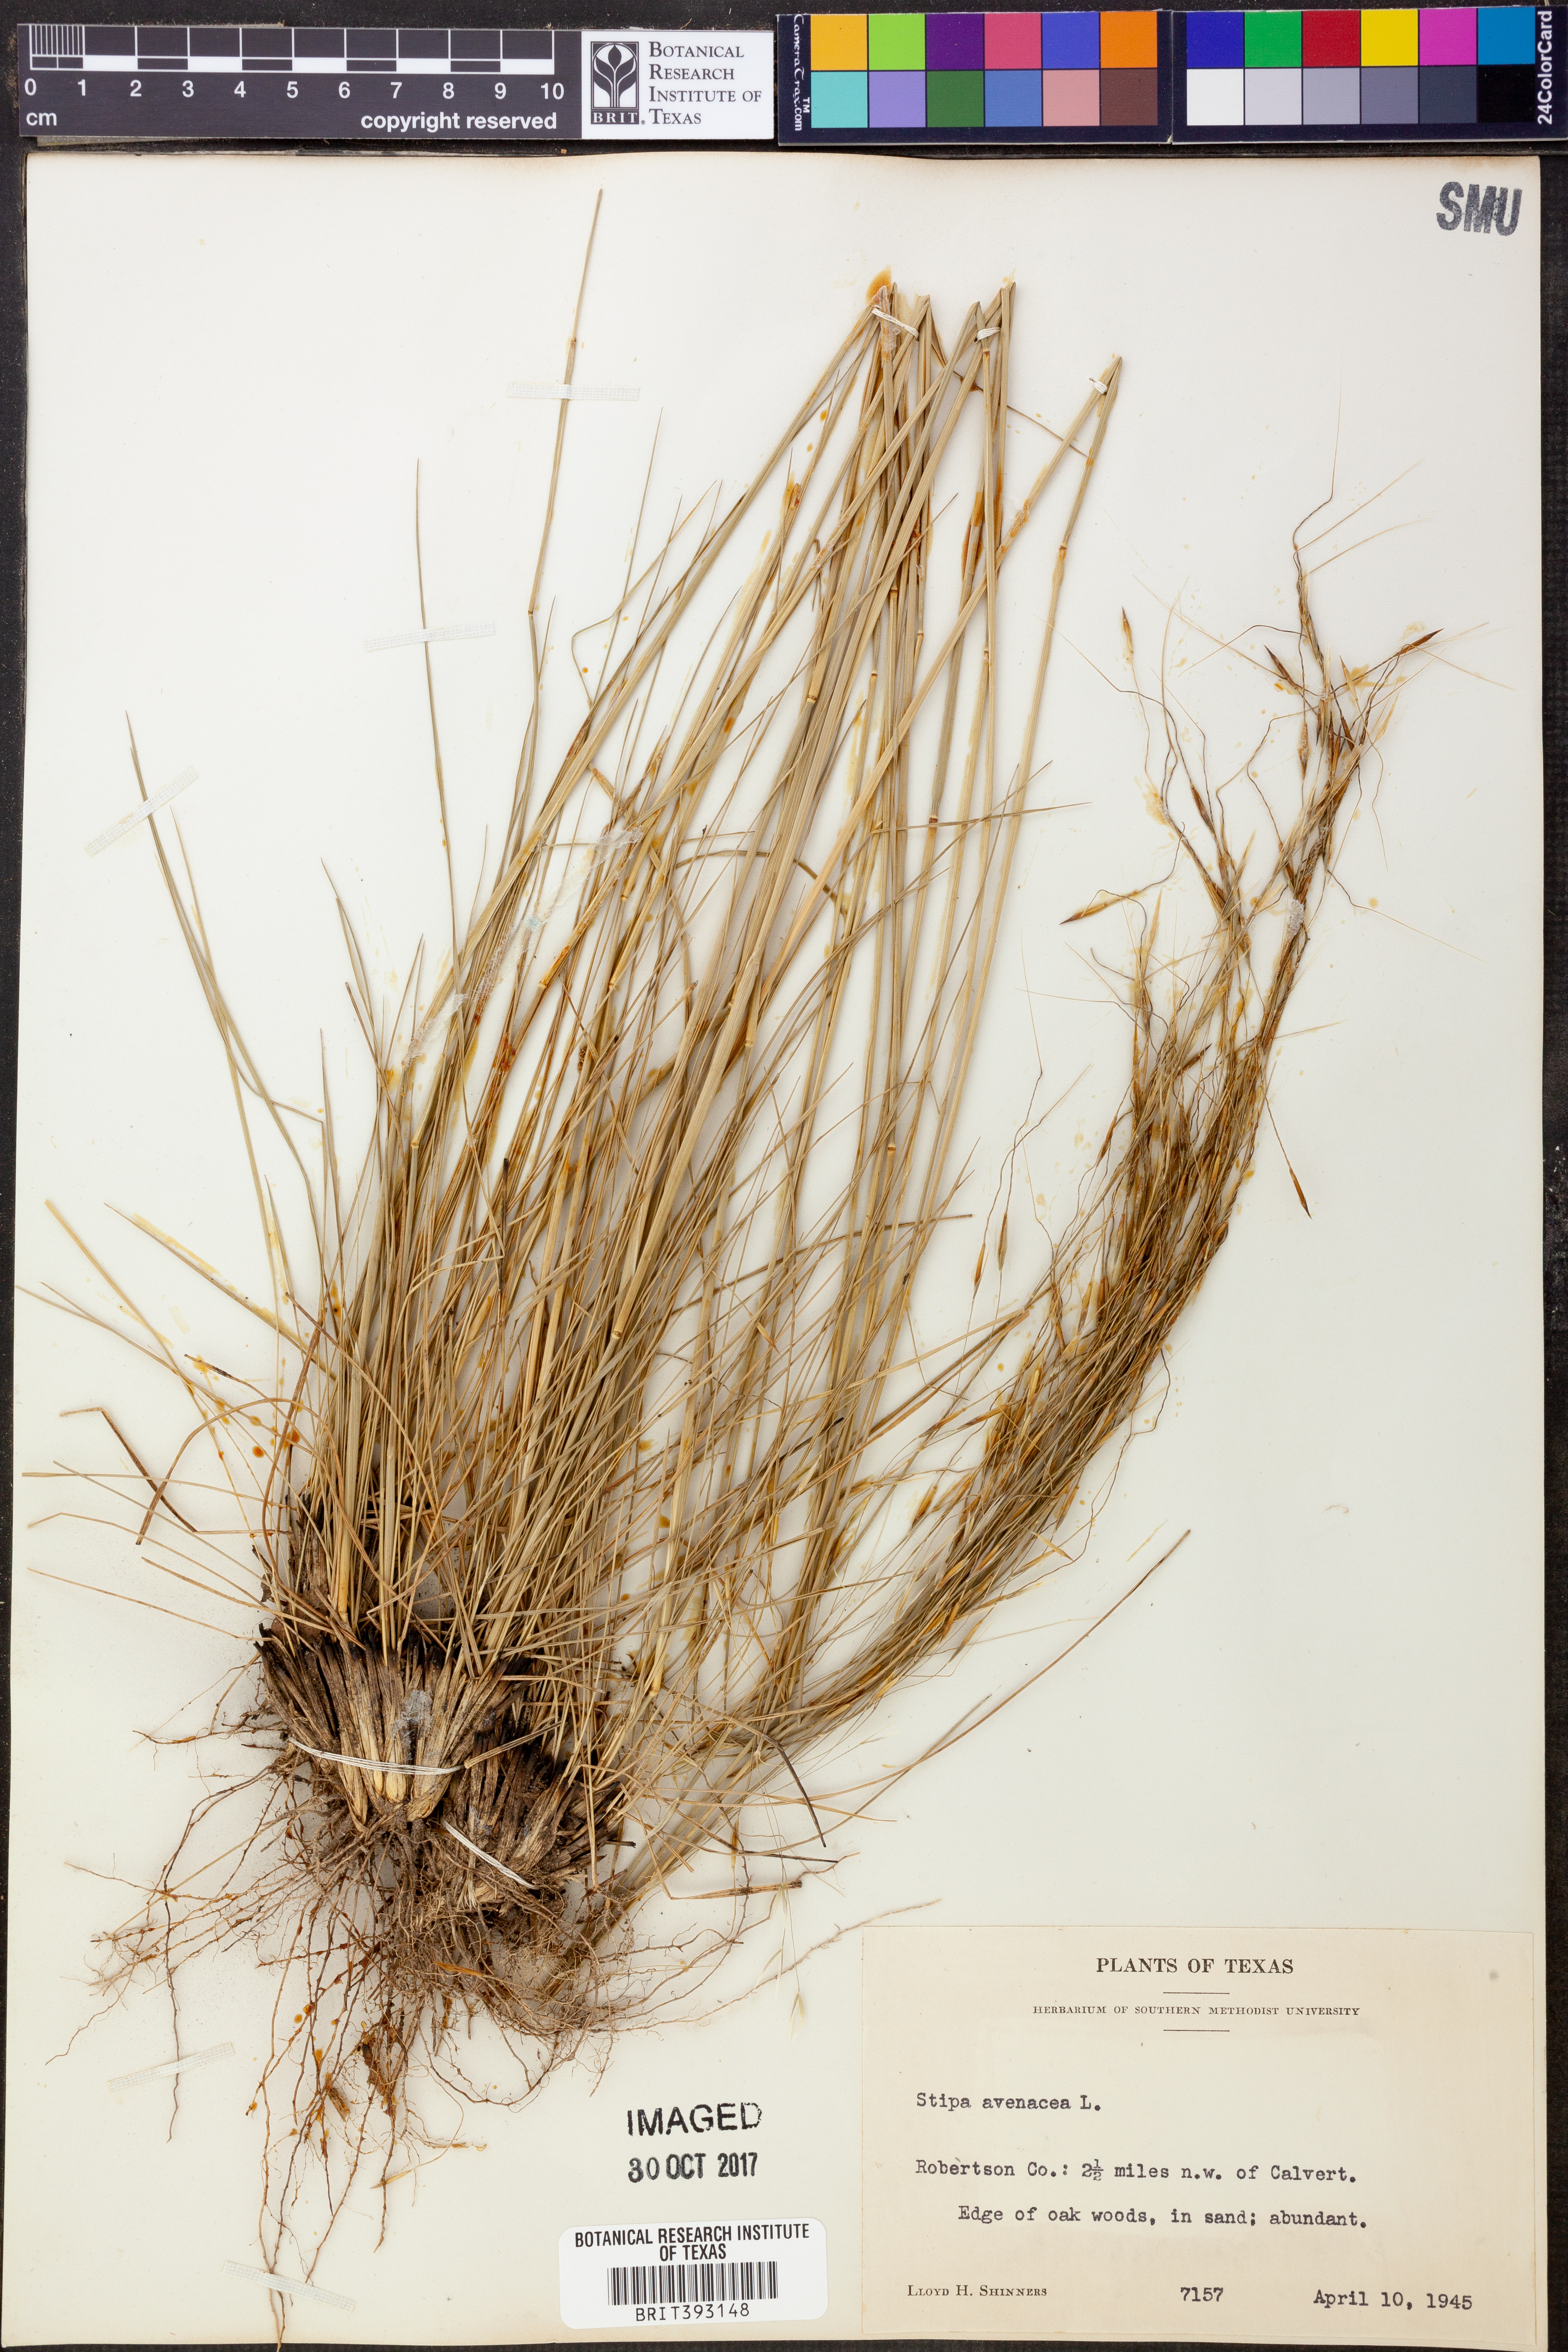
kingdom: Plantae
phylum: Tracheophyta
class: Liliopsida
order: Poales
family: Poaceae
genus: Piptochaetium
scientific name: Piptochaetium avenaceum
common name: Black bunchgrass
